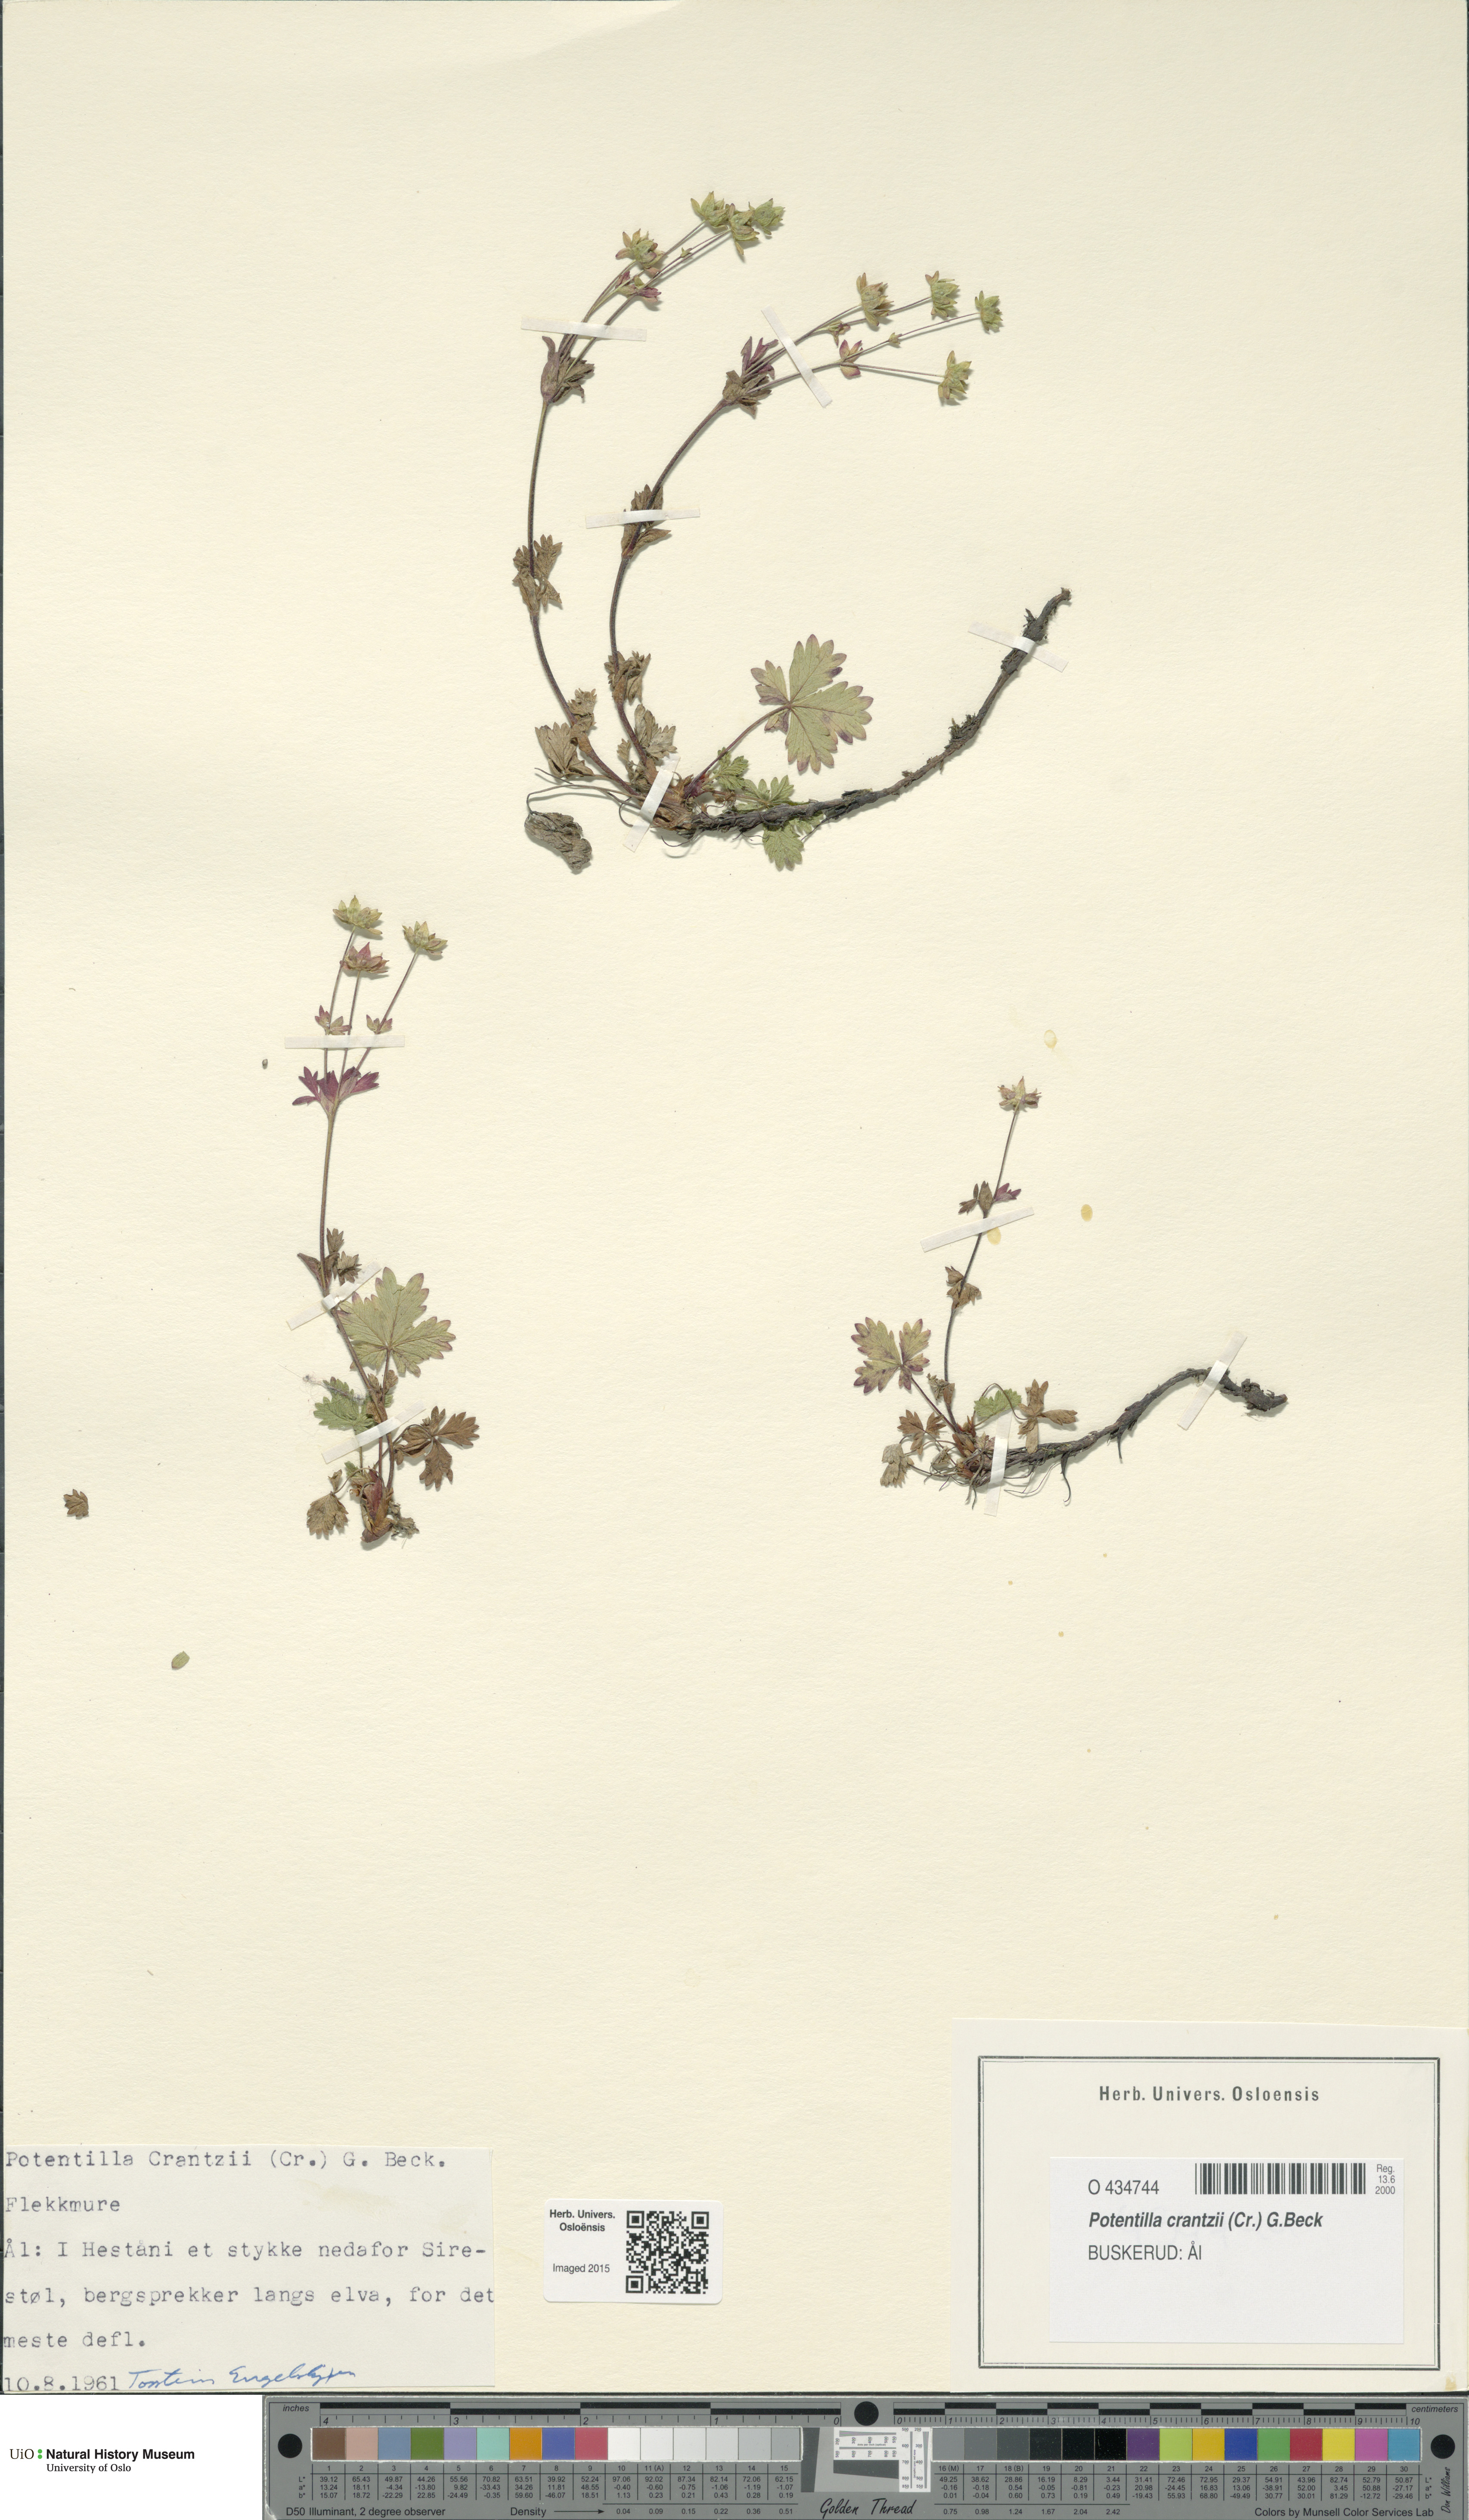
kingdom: Plantae
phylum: Tracheophyta
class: Magnoliopsida
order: Rosales
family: Rosaceae
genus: Potentilla
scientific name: Potentilla crantzii
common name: Alpine cinquefoil
